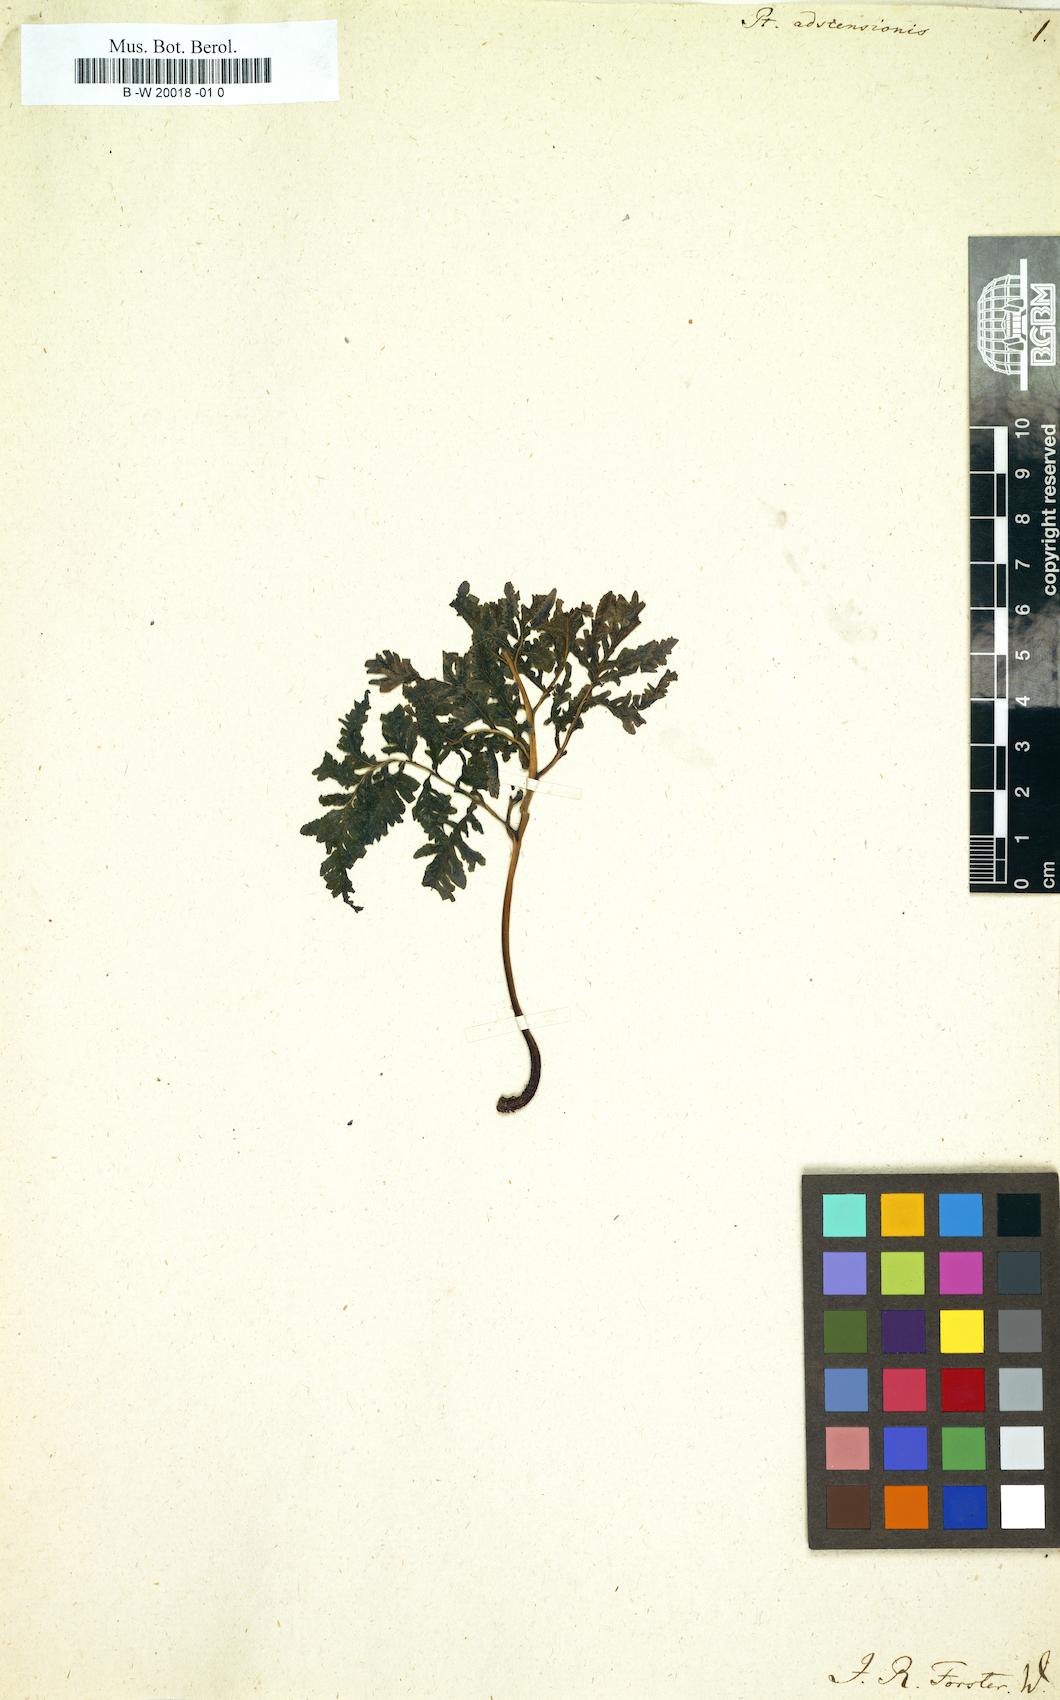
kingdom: Plantae
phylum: Tracheophyta
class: Polypodiopsida
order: Polypodiales
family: Pteridaceae
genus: Pteris
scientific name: Pteris adscensionis
